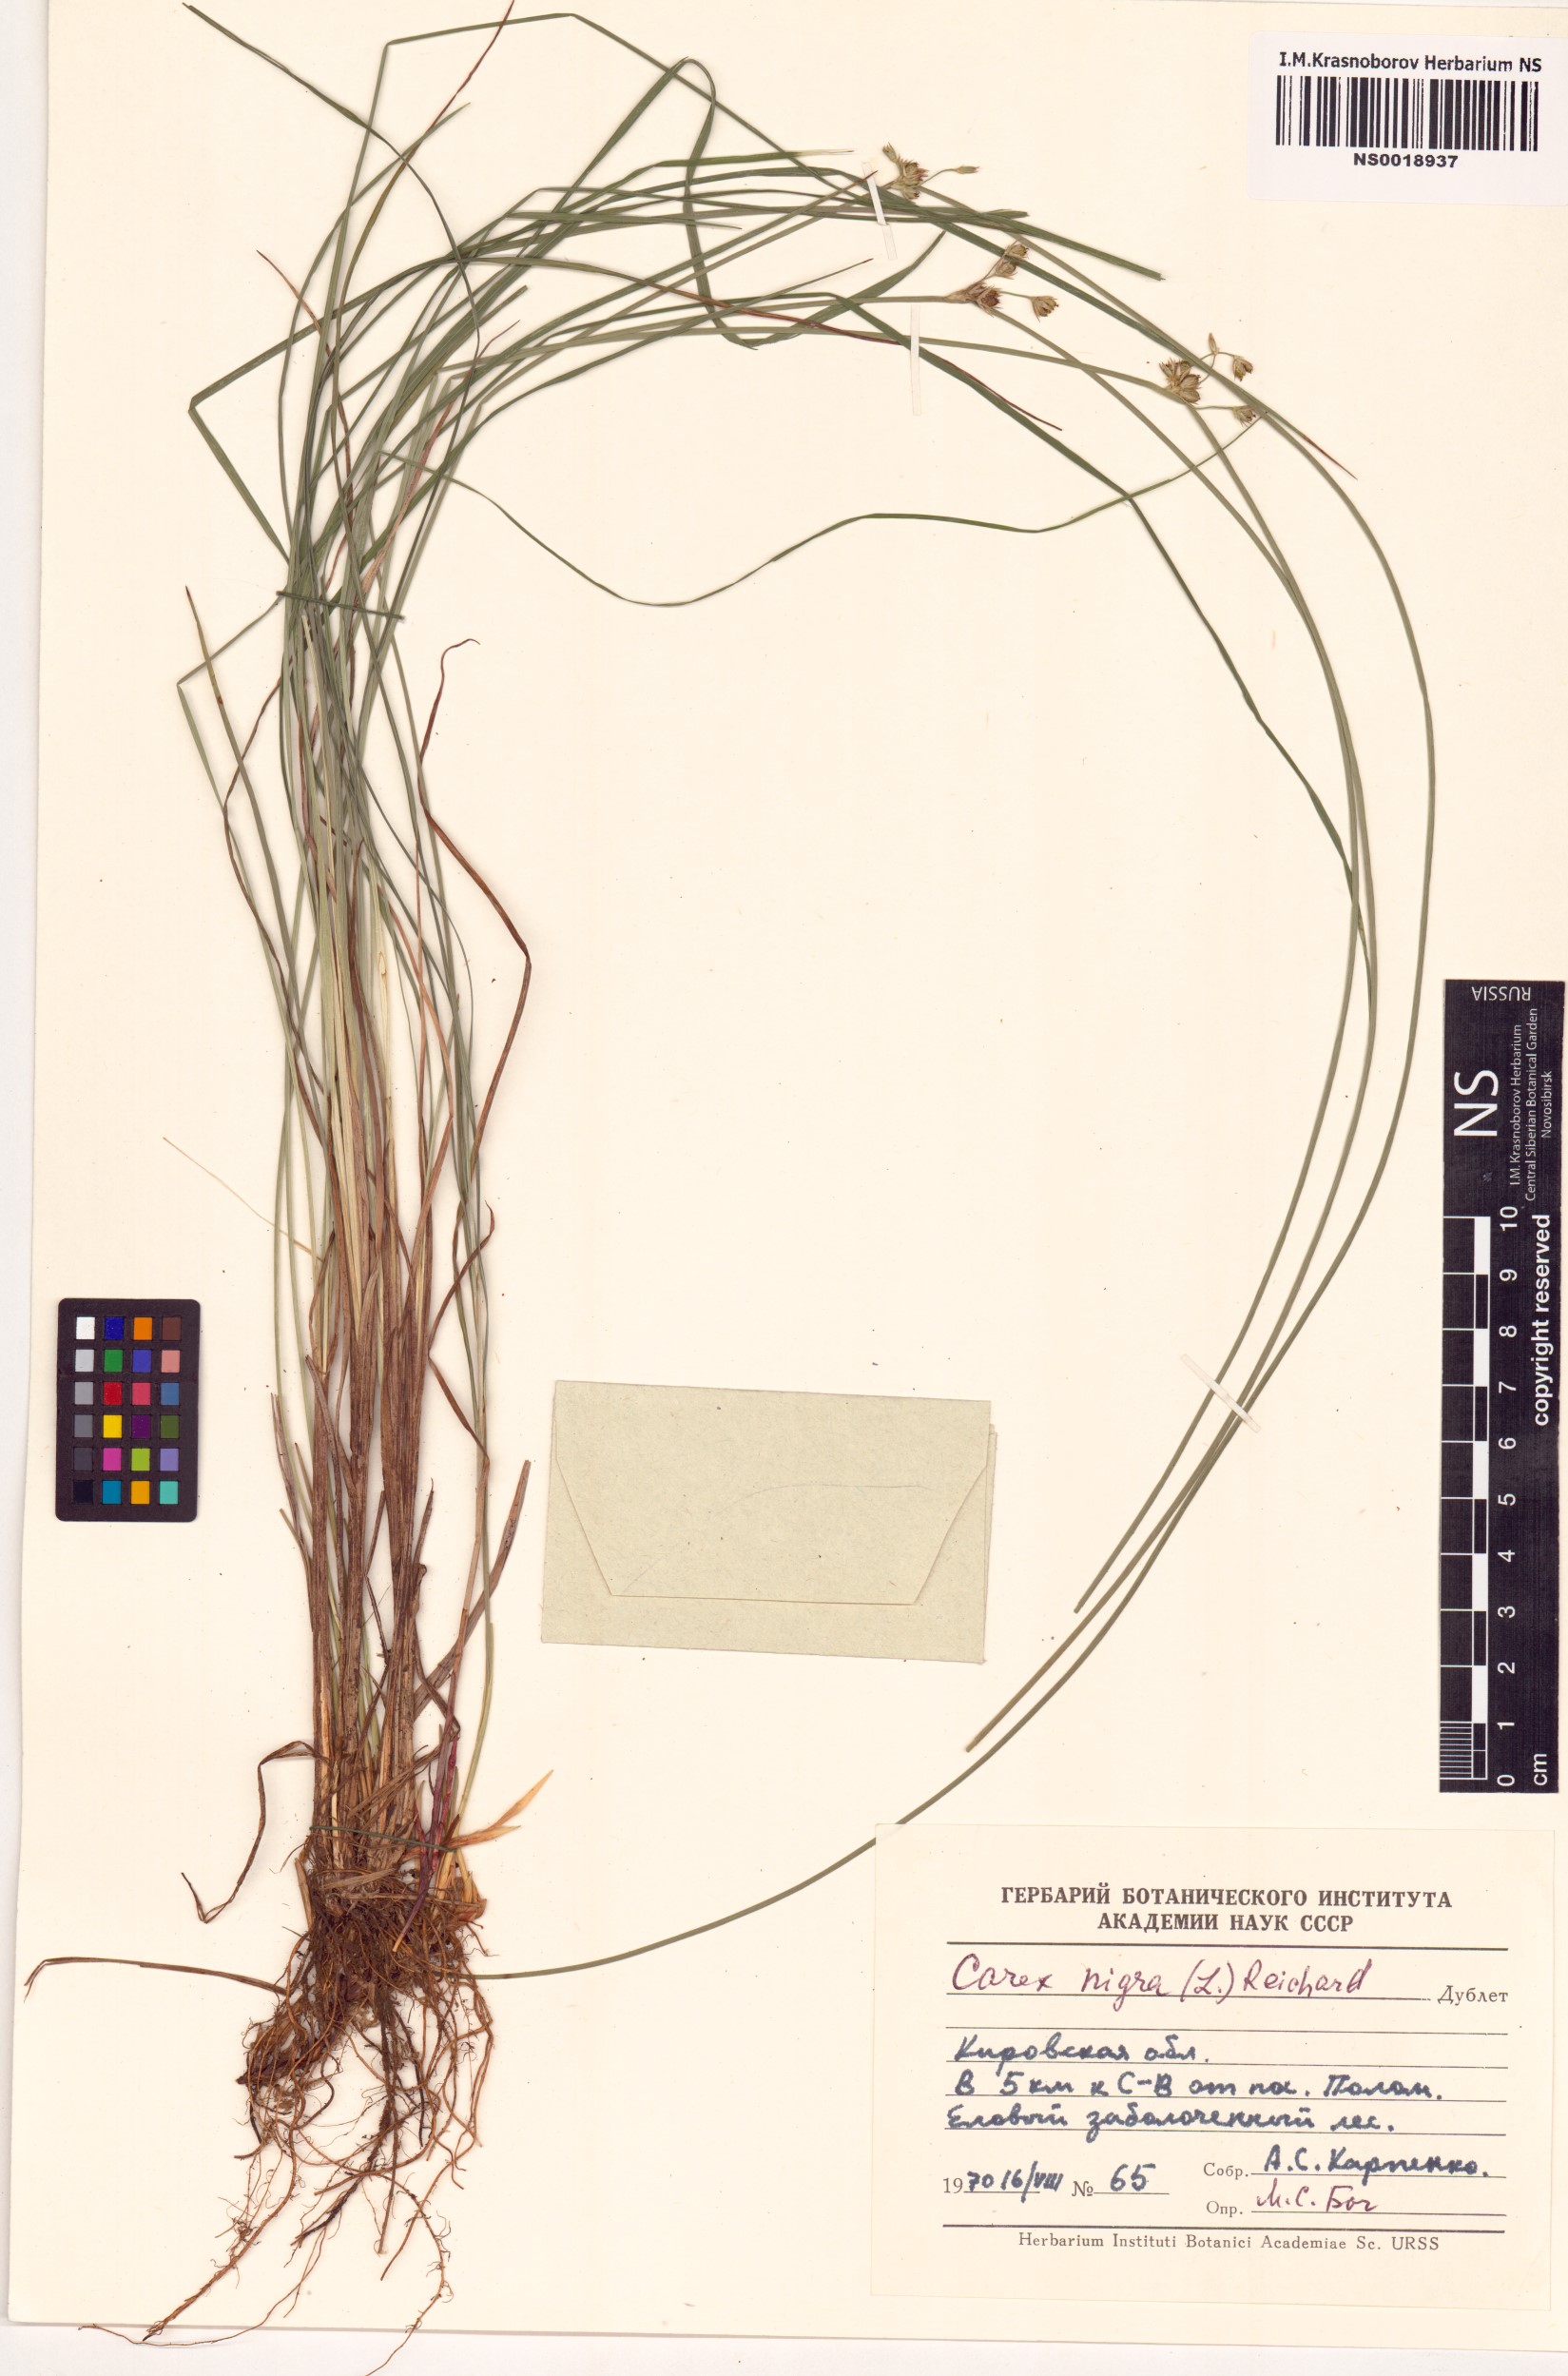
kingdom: Plantae
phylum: Tracheophyta
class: Liliopsida
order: Poales
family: Cyperaceae
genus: Carex
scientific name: Carex nigra
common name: Common sedge
